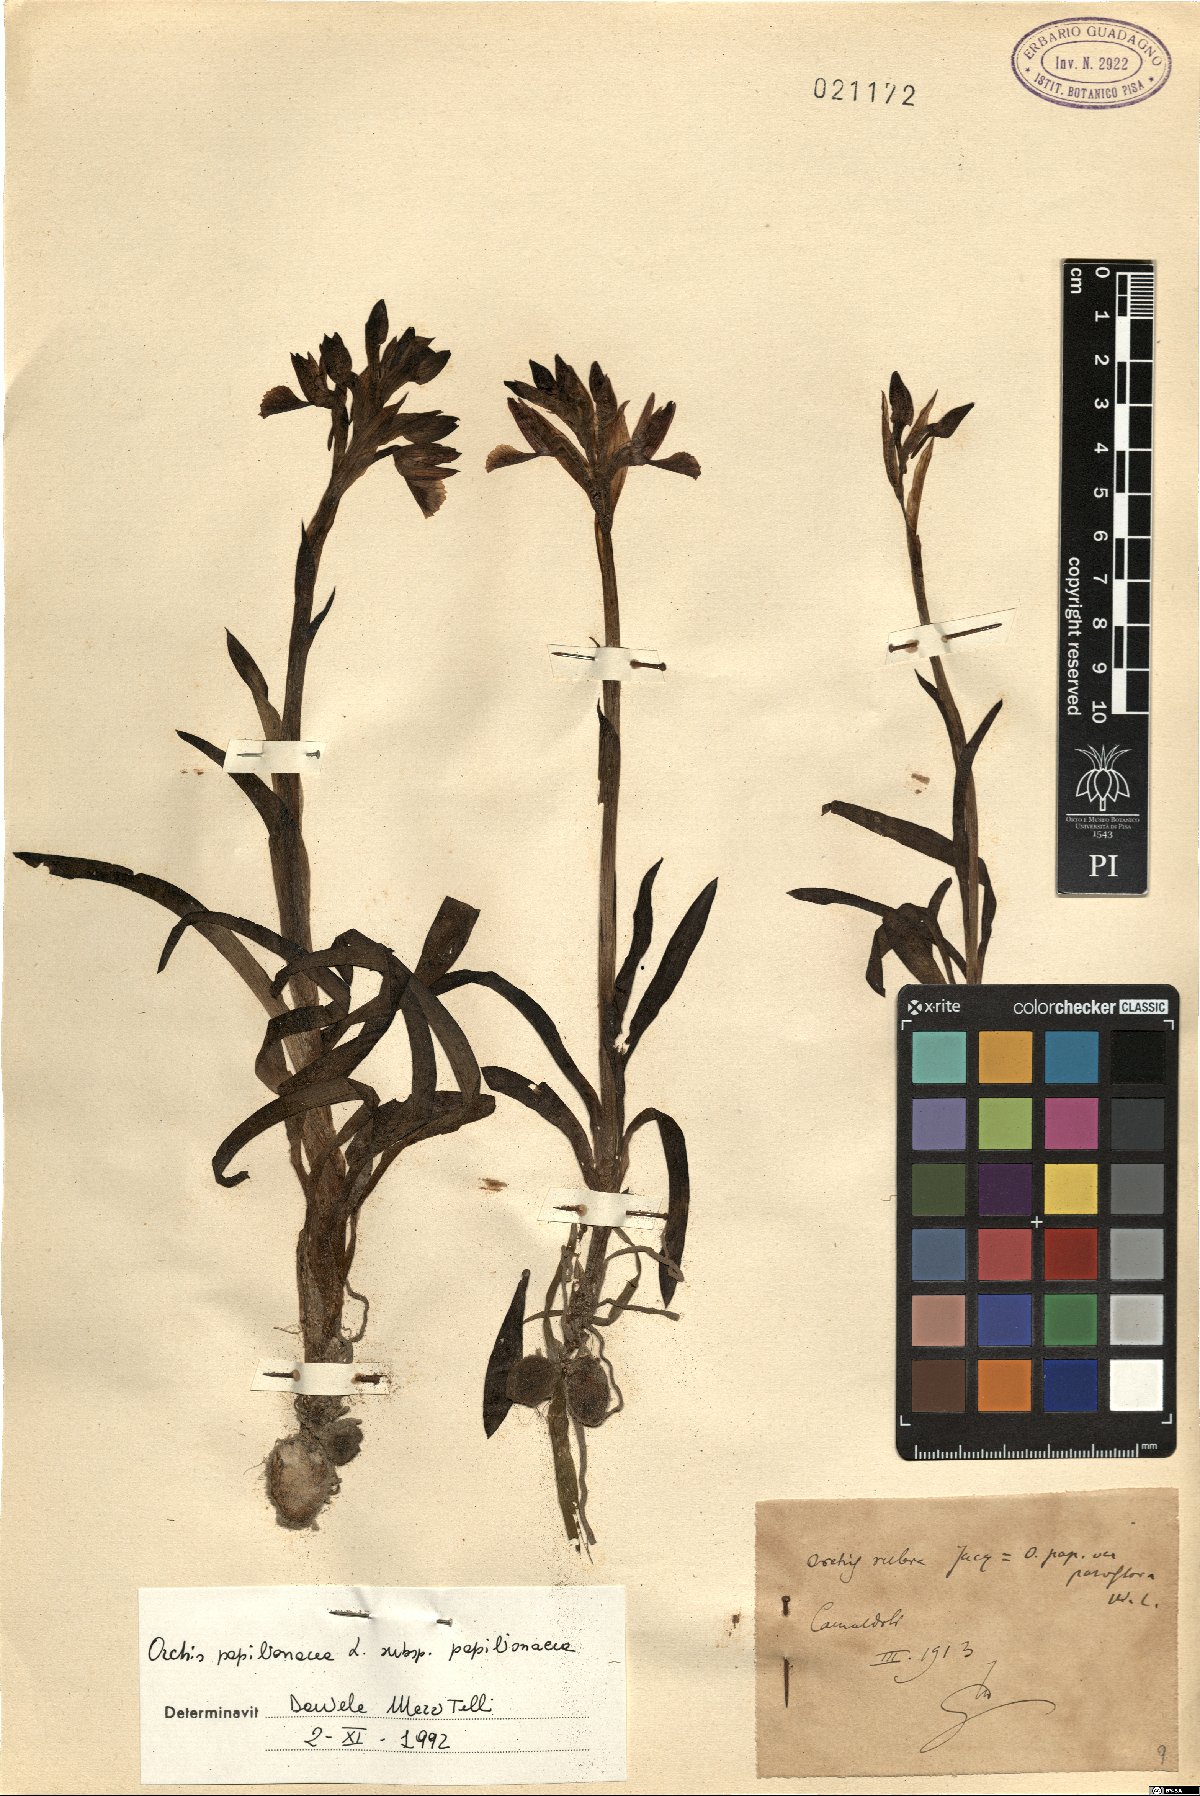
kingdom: Plantae
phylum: Tracheophyta
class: Liliopsida
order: Asparagales
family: Orchidaceae
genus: Anacamptis
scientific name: Anacamptis papilionacea
